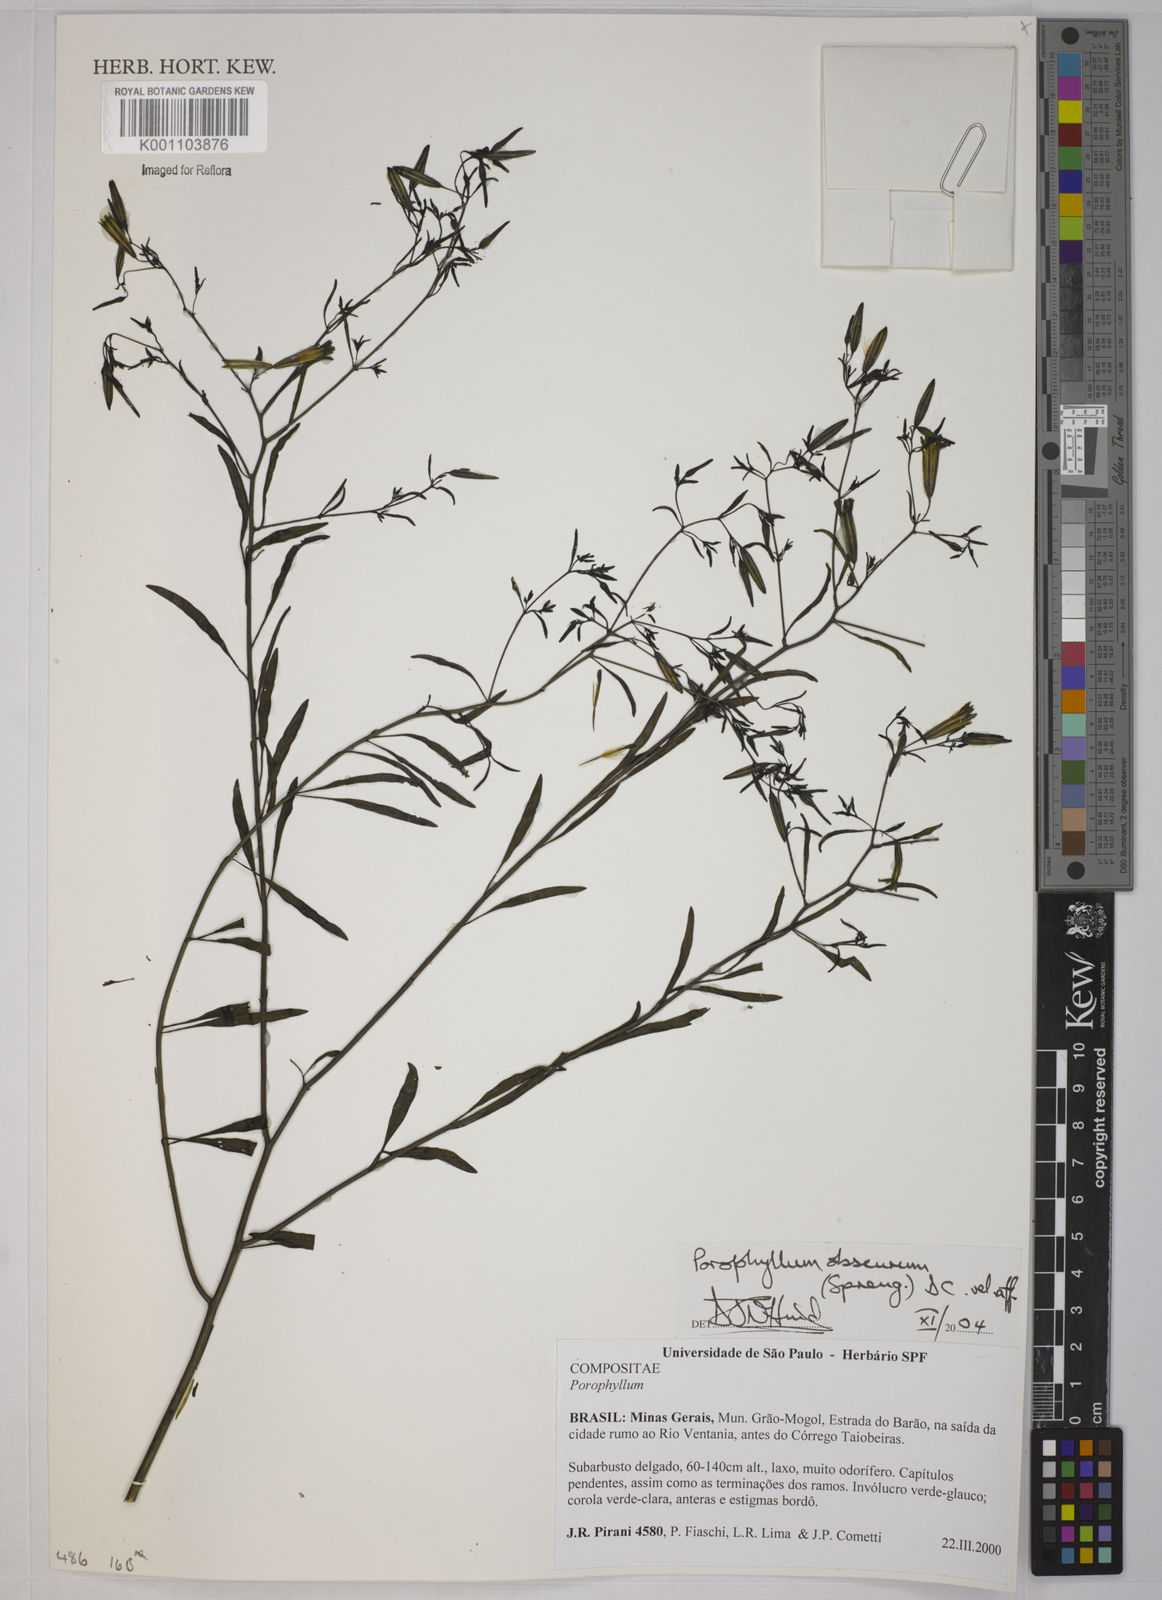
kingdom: Plantae
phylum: Tracheophyta
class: Magnoliopsida
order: Asterales
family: Asteraceae
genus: Porophyllum
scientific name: Porophyllum obscurum
